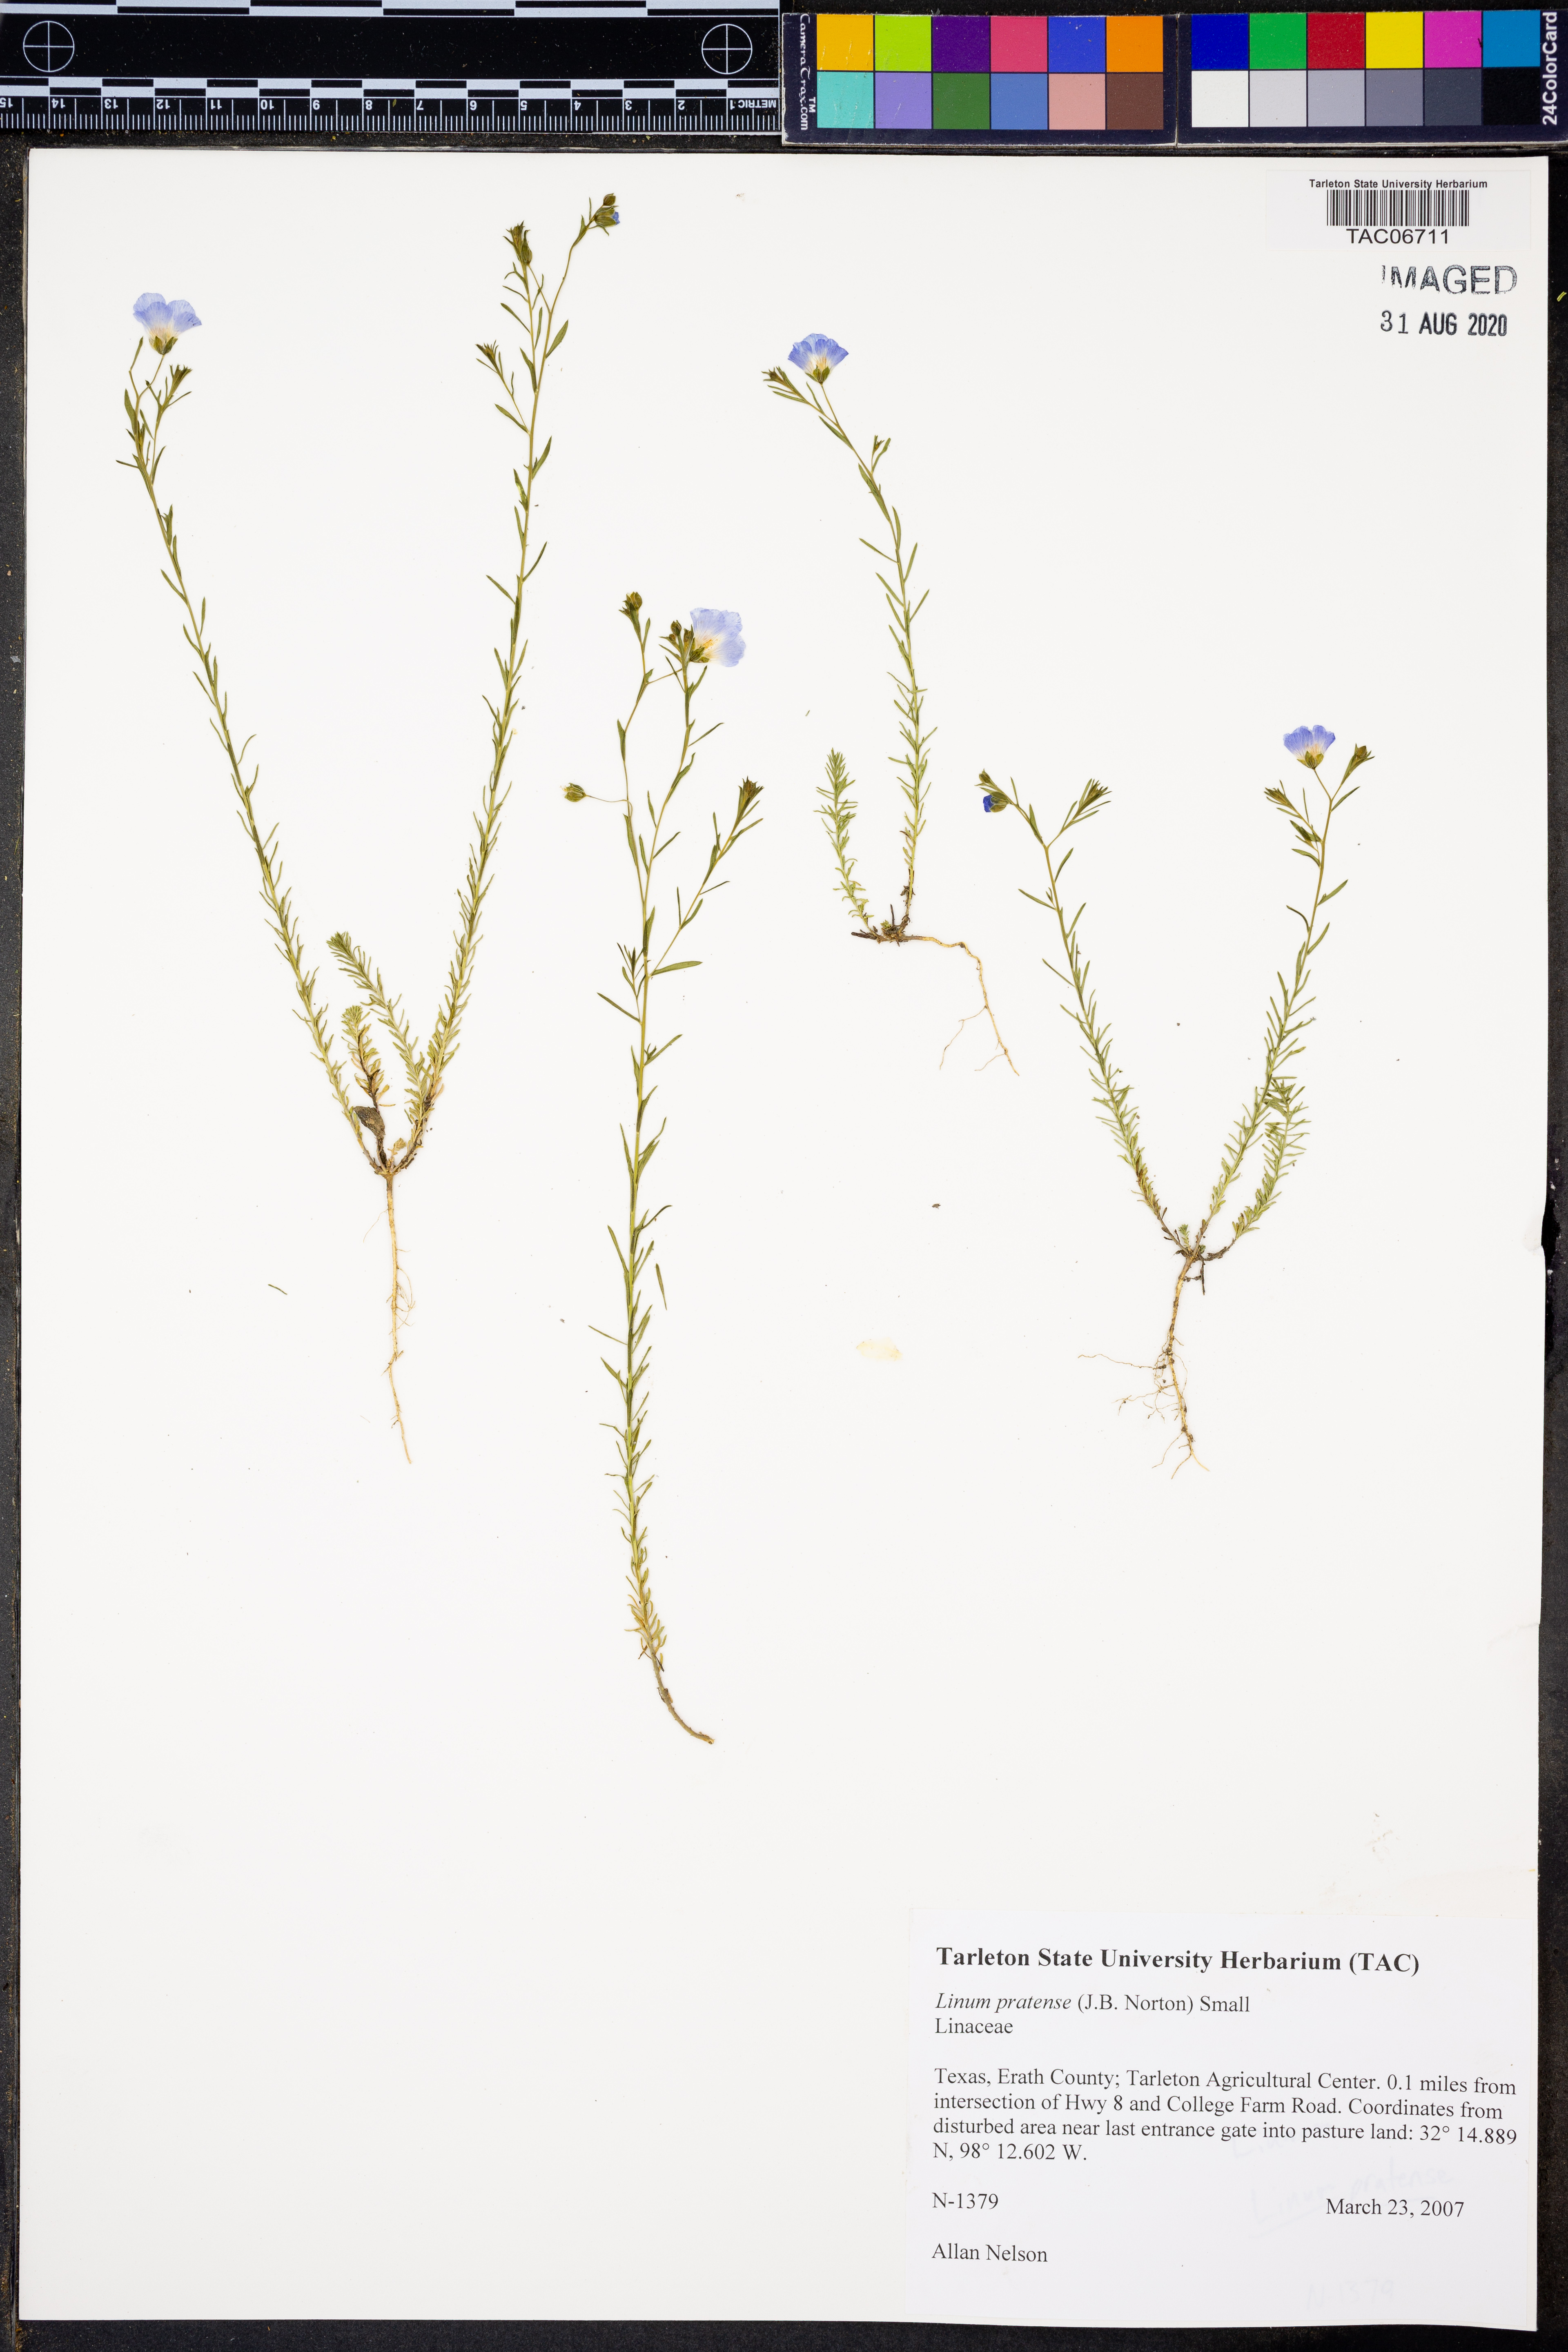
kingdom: Plantae
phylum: Tracheophyta
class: Magnoliopsida
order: Malpighiales
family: Linaceae
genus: Linum
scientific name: Linum pratense
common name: Norton's flax
